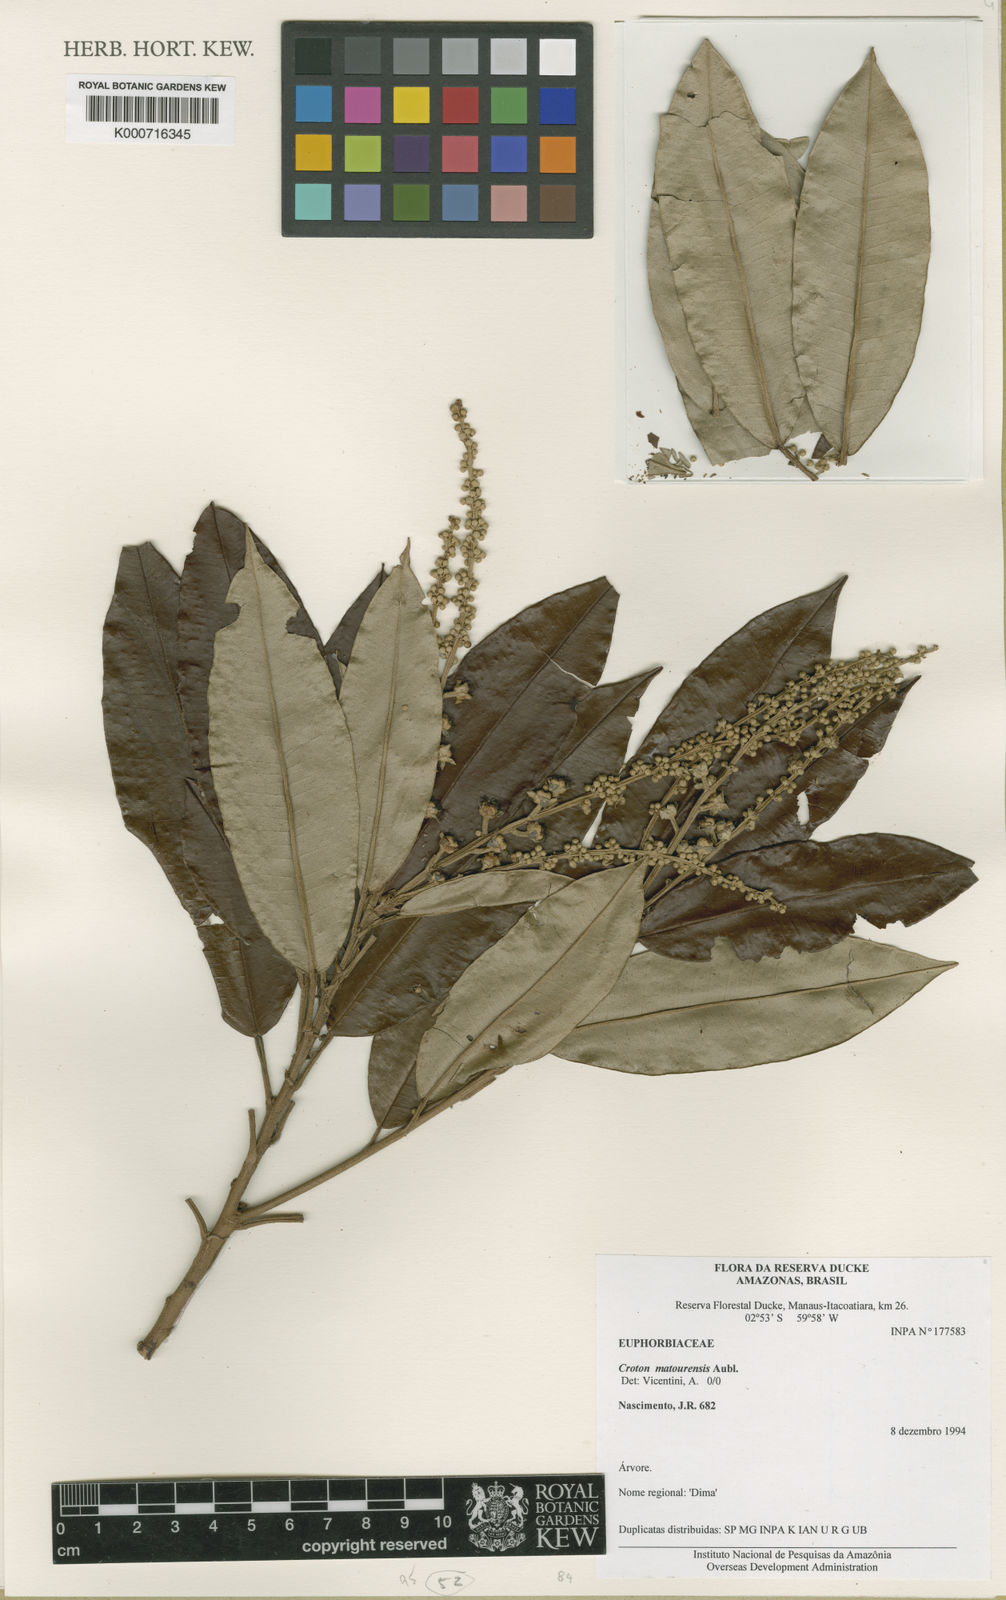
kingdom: Plantae
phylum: Tracheophyta
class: Magnoliopsida
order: Malpighiales
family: Euphorbiaceae
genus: Croton
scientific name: Croton matourensis
